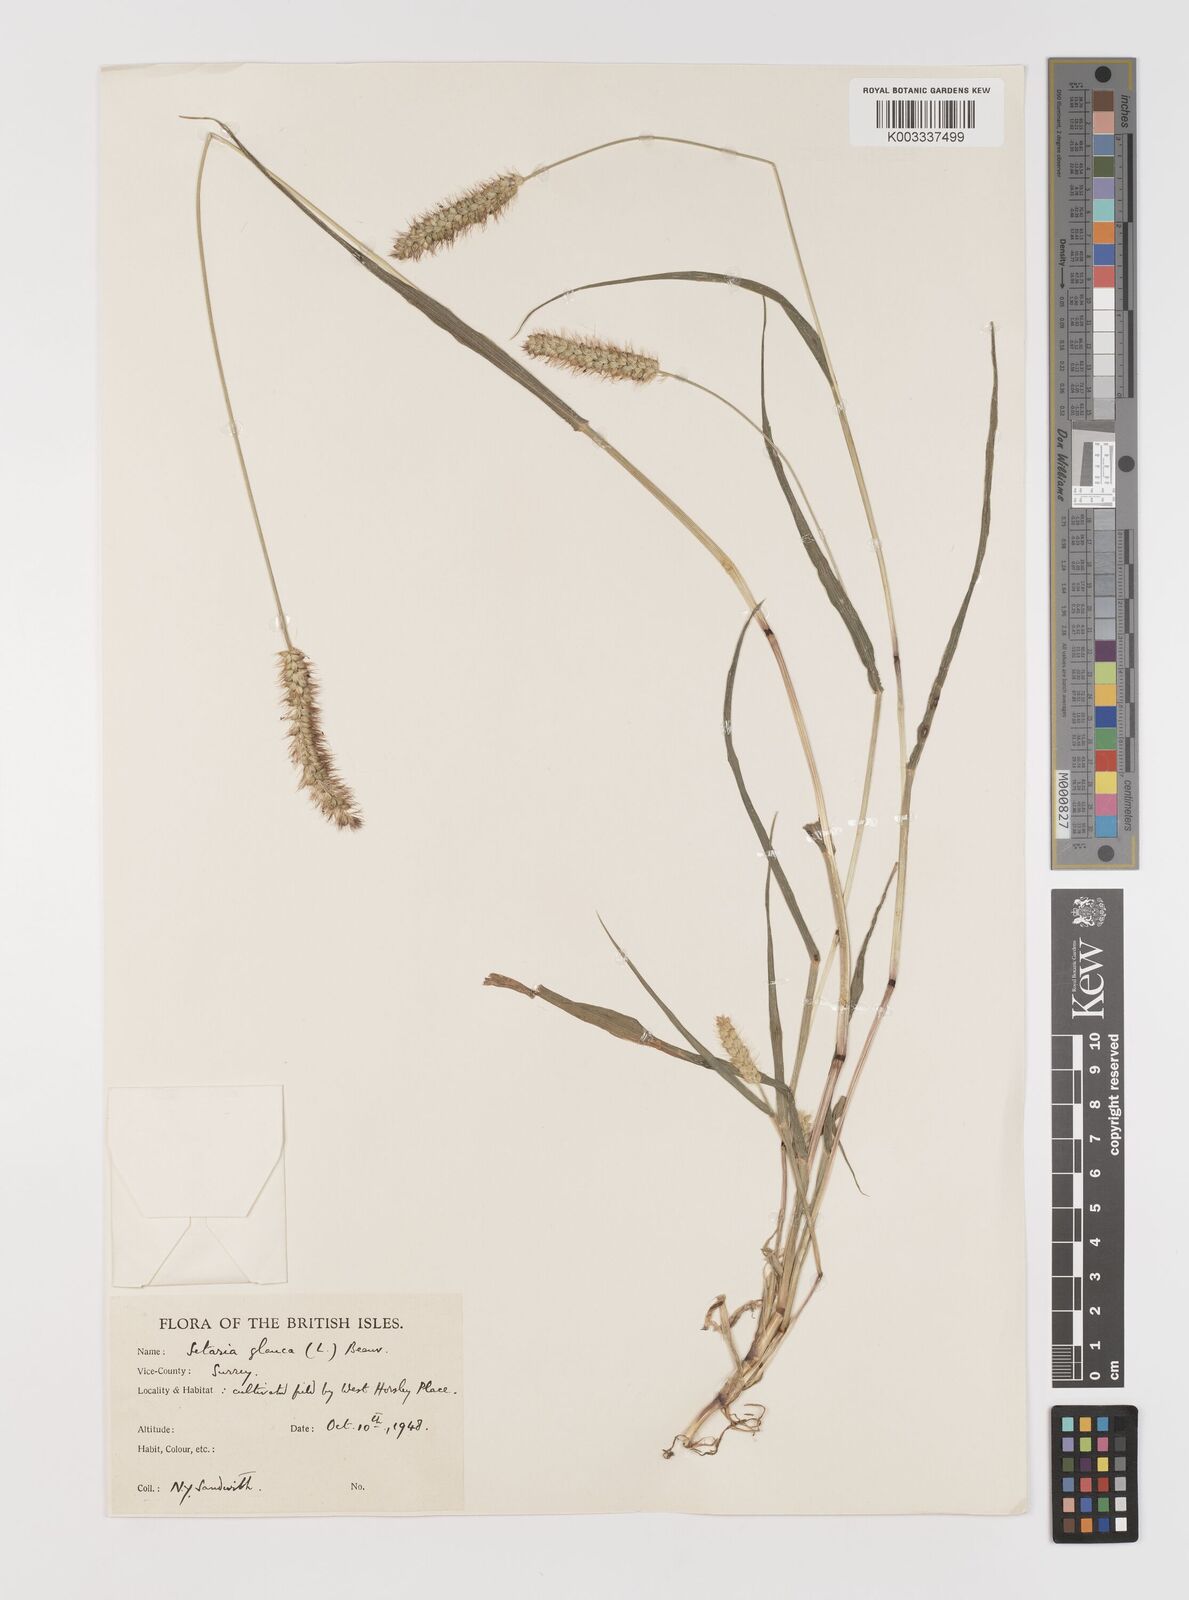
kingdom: Plantae
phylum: Tracheophyta
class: Liliopsida
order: Poales
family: Poaceae
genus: Setaria
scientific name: Setaria pumila
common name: Yellow bristle-grass
